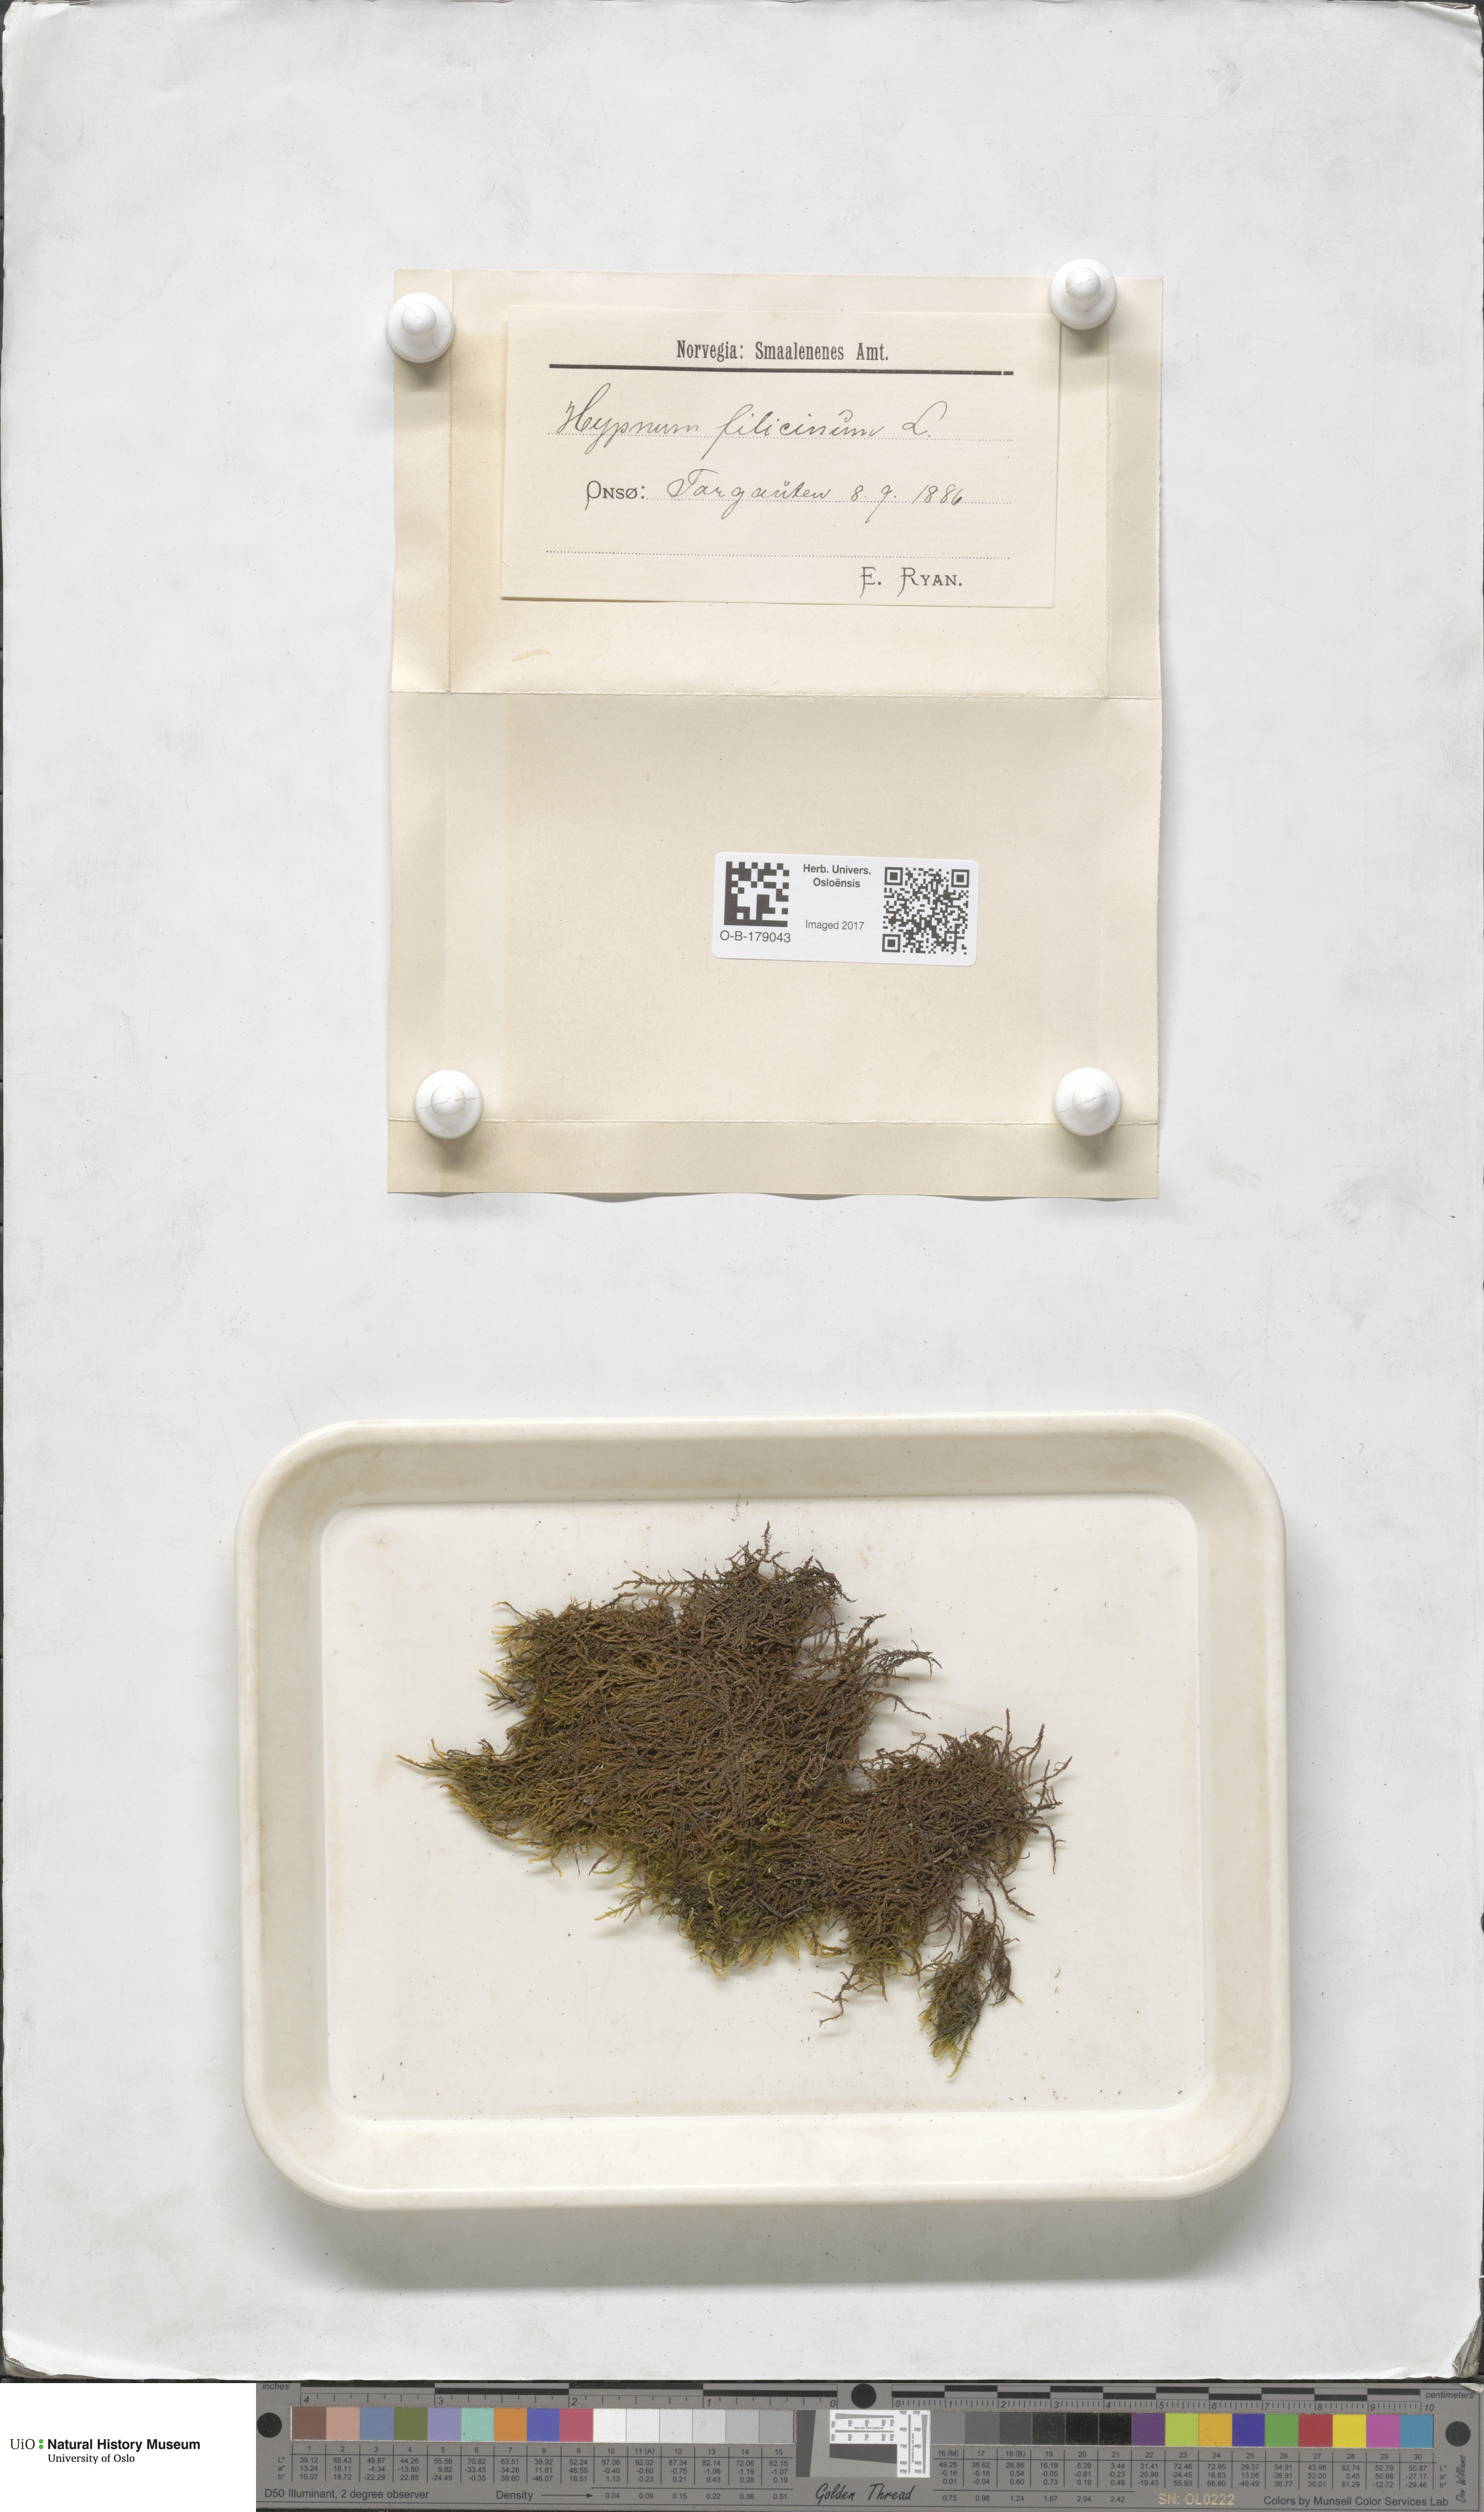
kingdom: Plantae
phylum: Bryophyta
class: Bryopsida
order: Hypnales
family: Amblystegiaceae
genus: Cratoneuron
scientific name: Cratoneuron filicinum
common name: Fern-leaved hook moss
